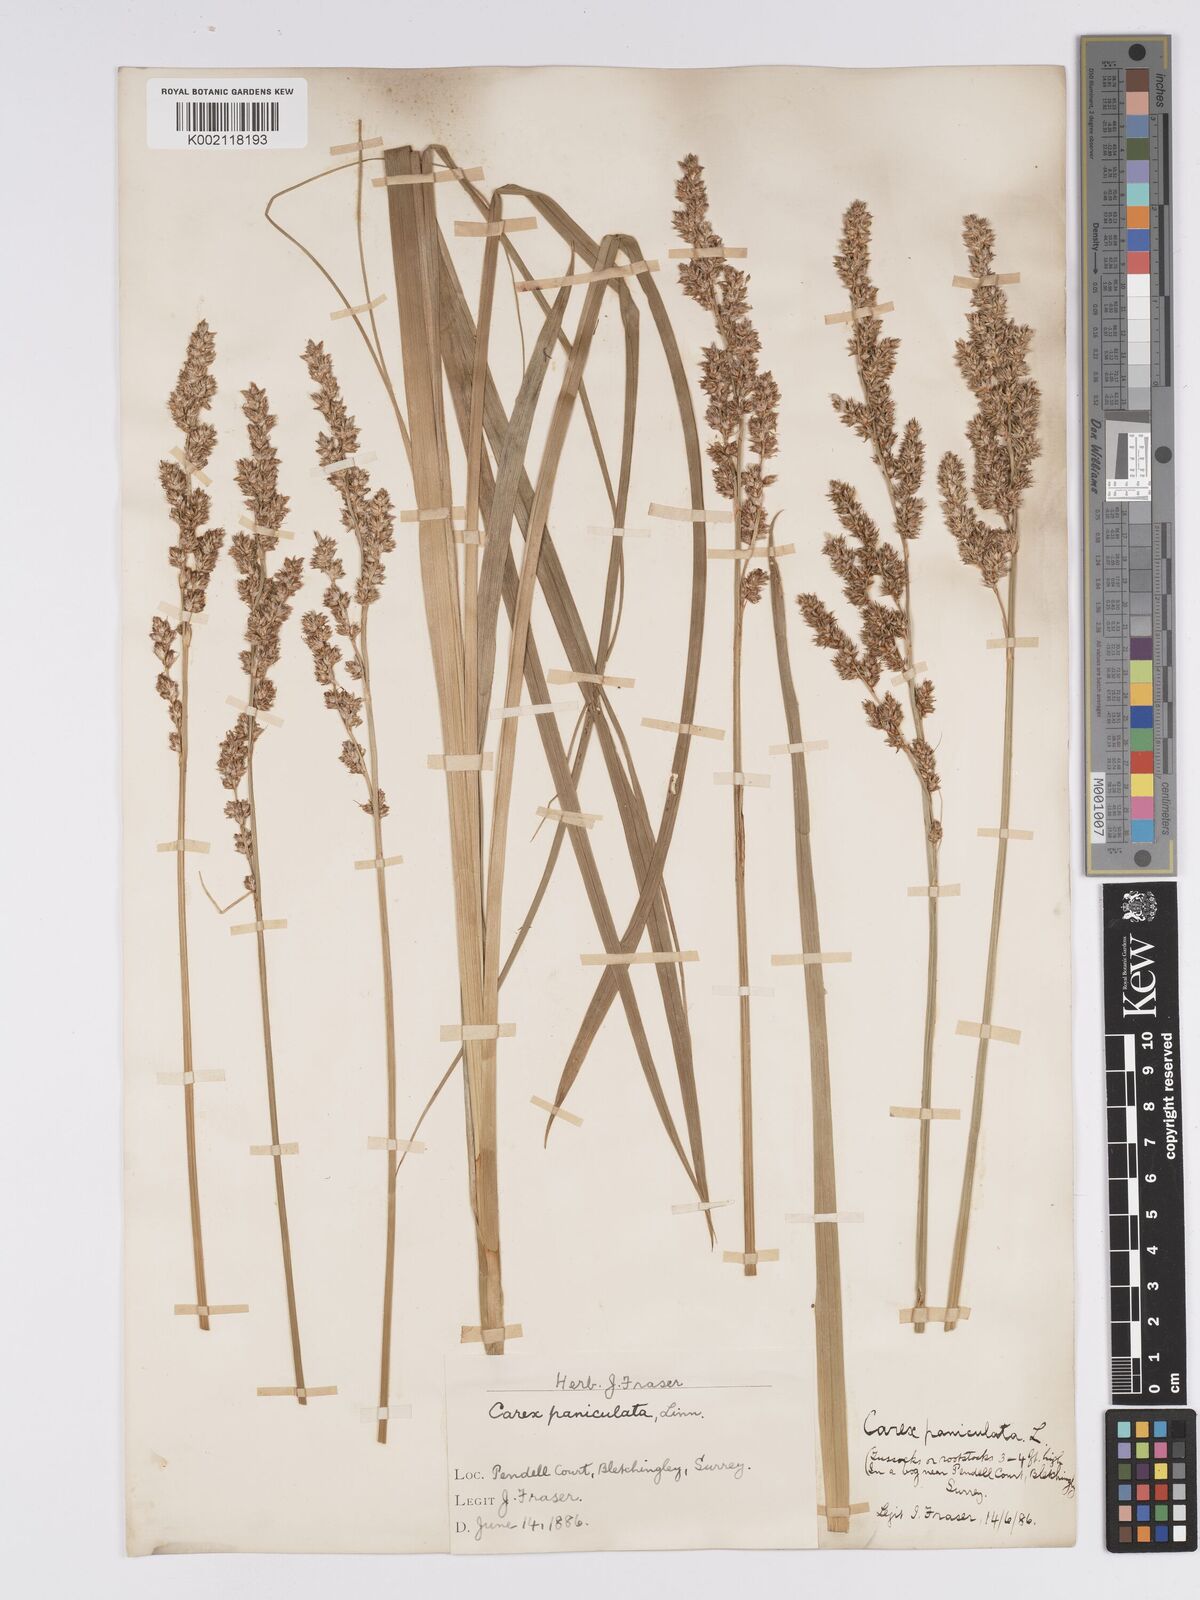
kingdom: Plantae
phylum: Tracheophyta
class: Liliopsida
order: Poales
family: Cyperaceae
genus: Carex
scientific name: Carex paniculata
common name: Greater tussock-sedge
